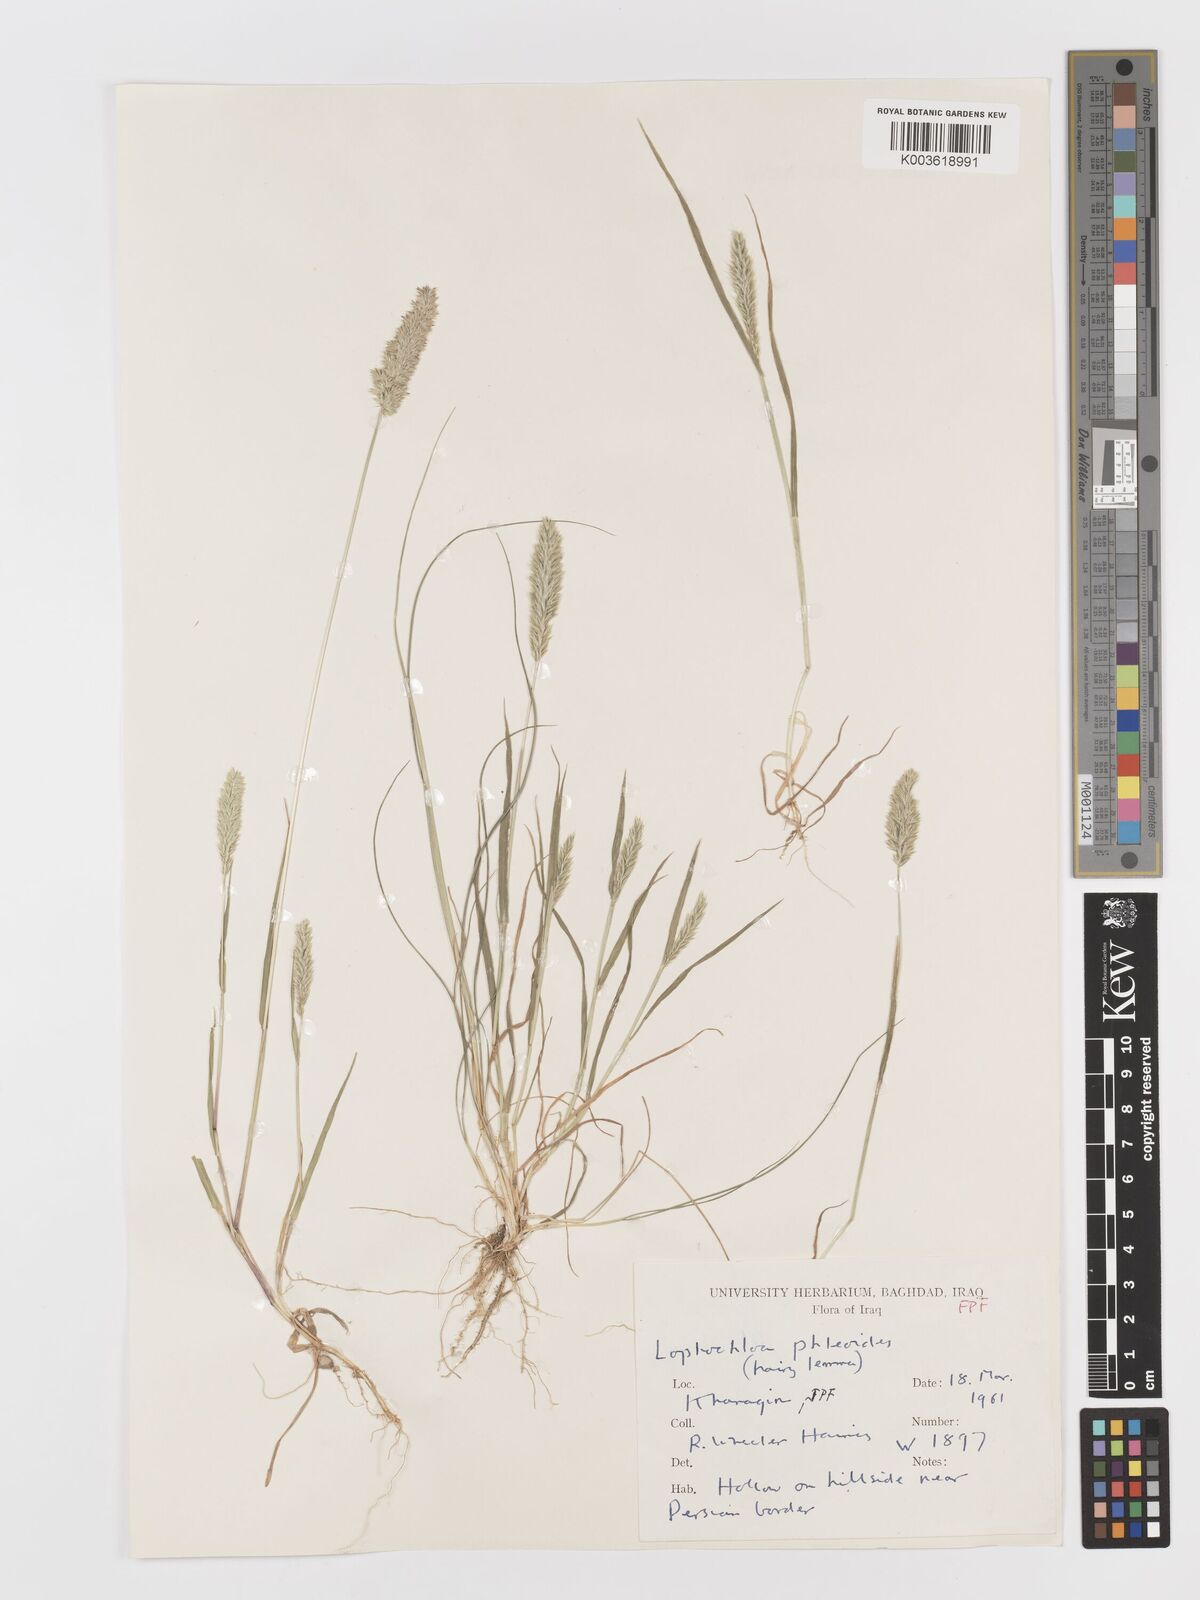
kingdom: Plantae
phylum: Tracheophyta
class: Liliopsida
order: Poales
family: Poaceae
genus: Rostraria
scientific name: Rostraria cristata
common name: Mediterranean hair-grass
